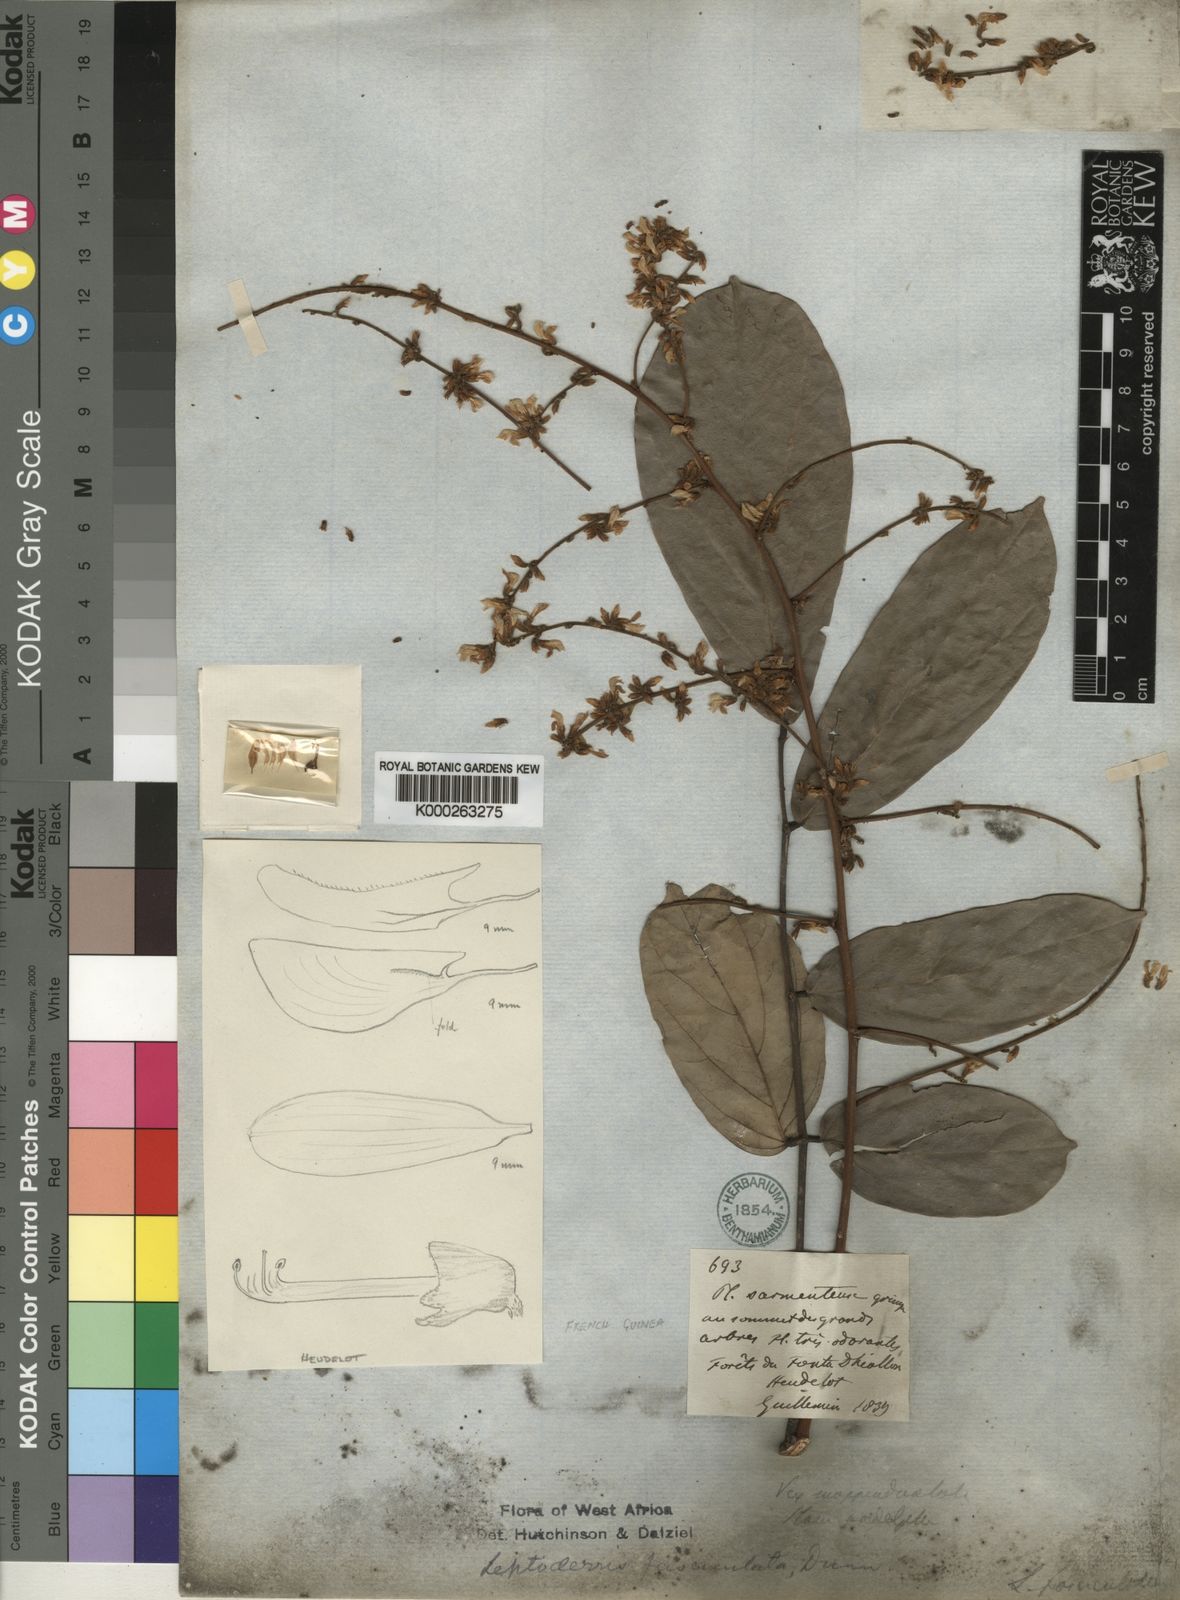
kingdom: Plantae
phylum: Tracheophyta
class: Magnoliopsida
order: Fabales
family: Fabaceae
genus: Leptoderris
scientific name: Leptoderris fasciculata
